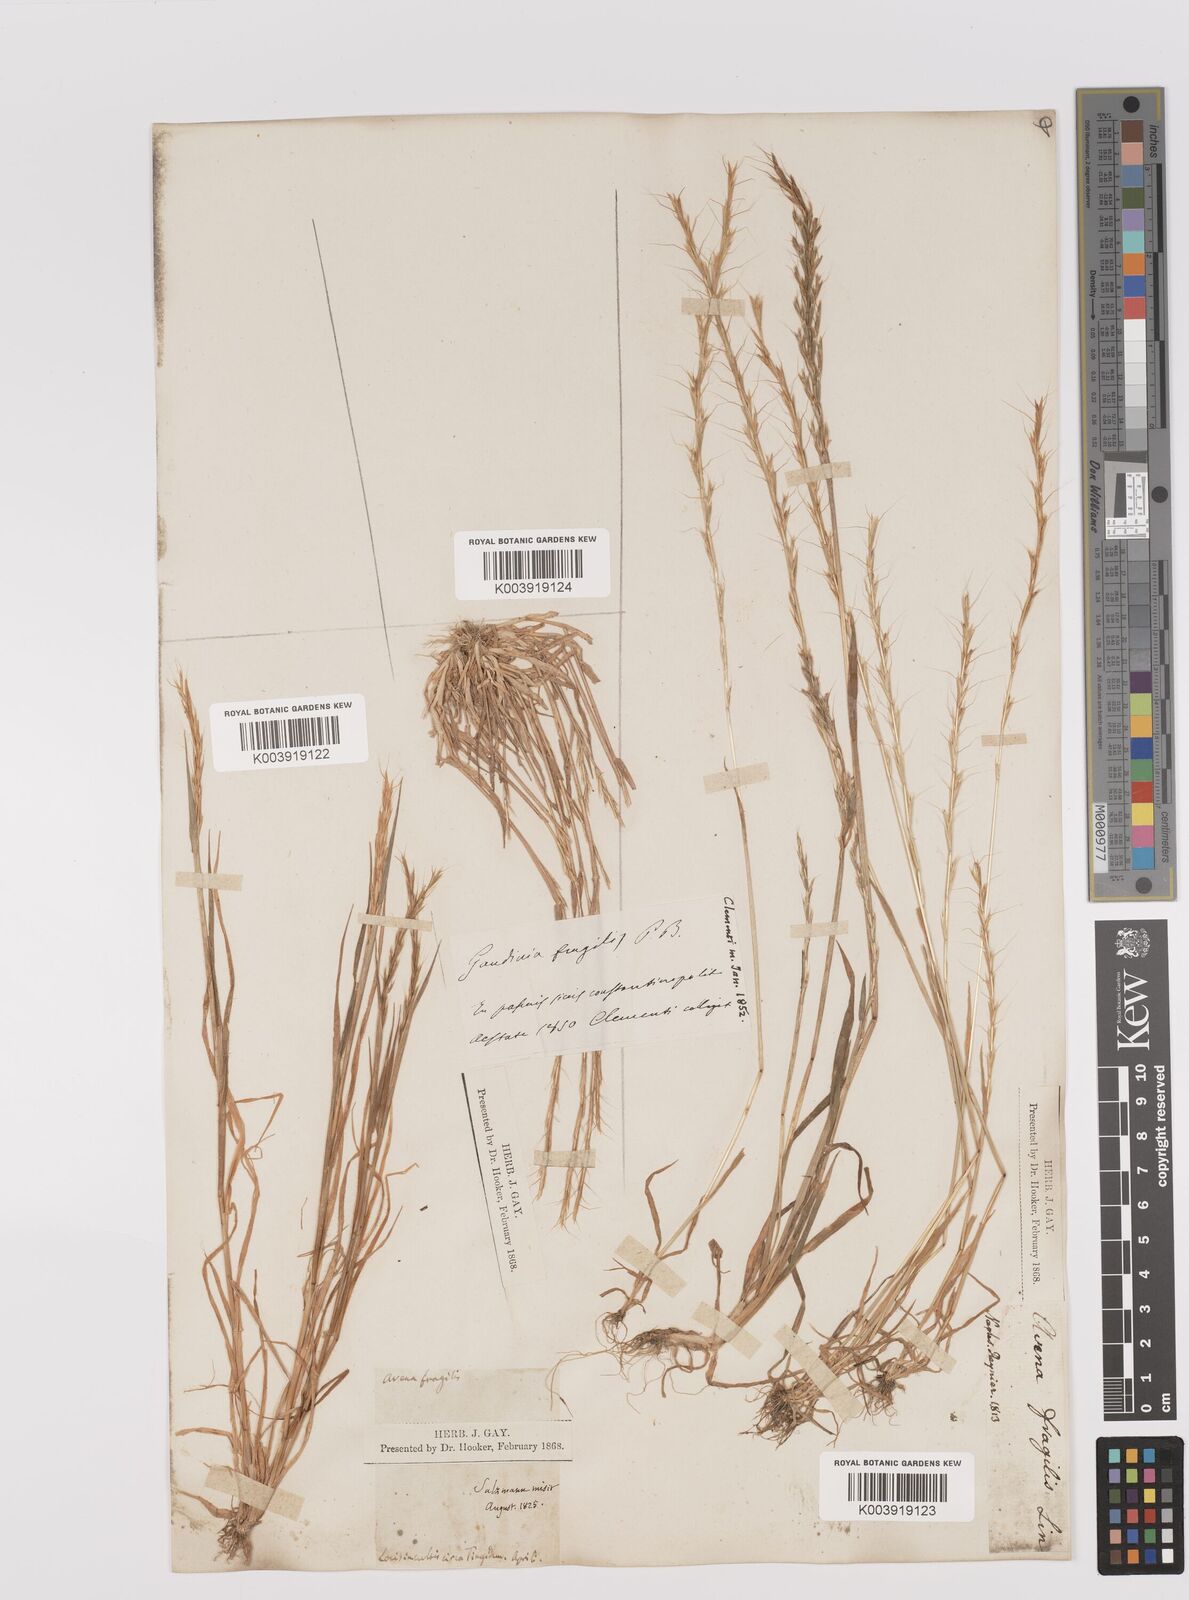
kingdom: Plantae
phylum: Tracheophyta
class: Liliopsida
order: Poales
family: Poaceae
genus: Gaudinia
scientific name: Gaudinia fragilis
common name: French oat-grass
